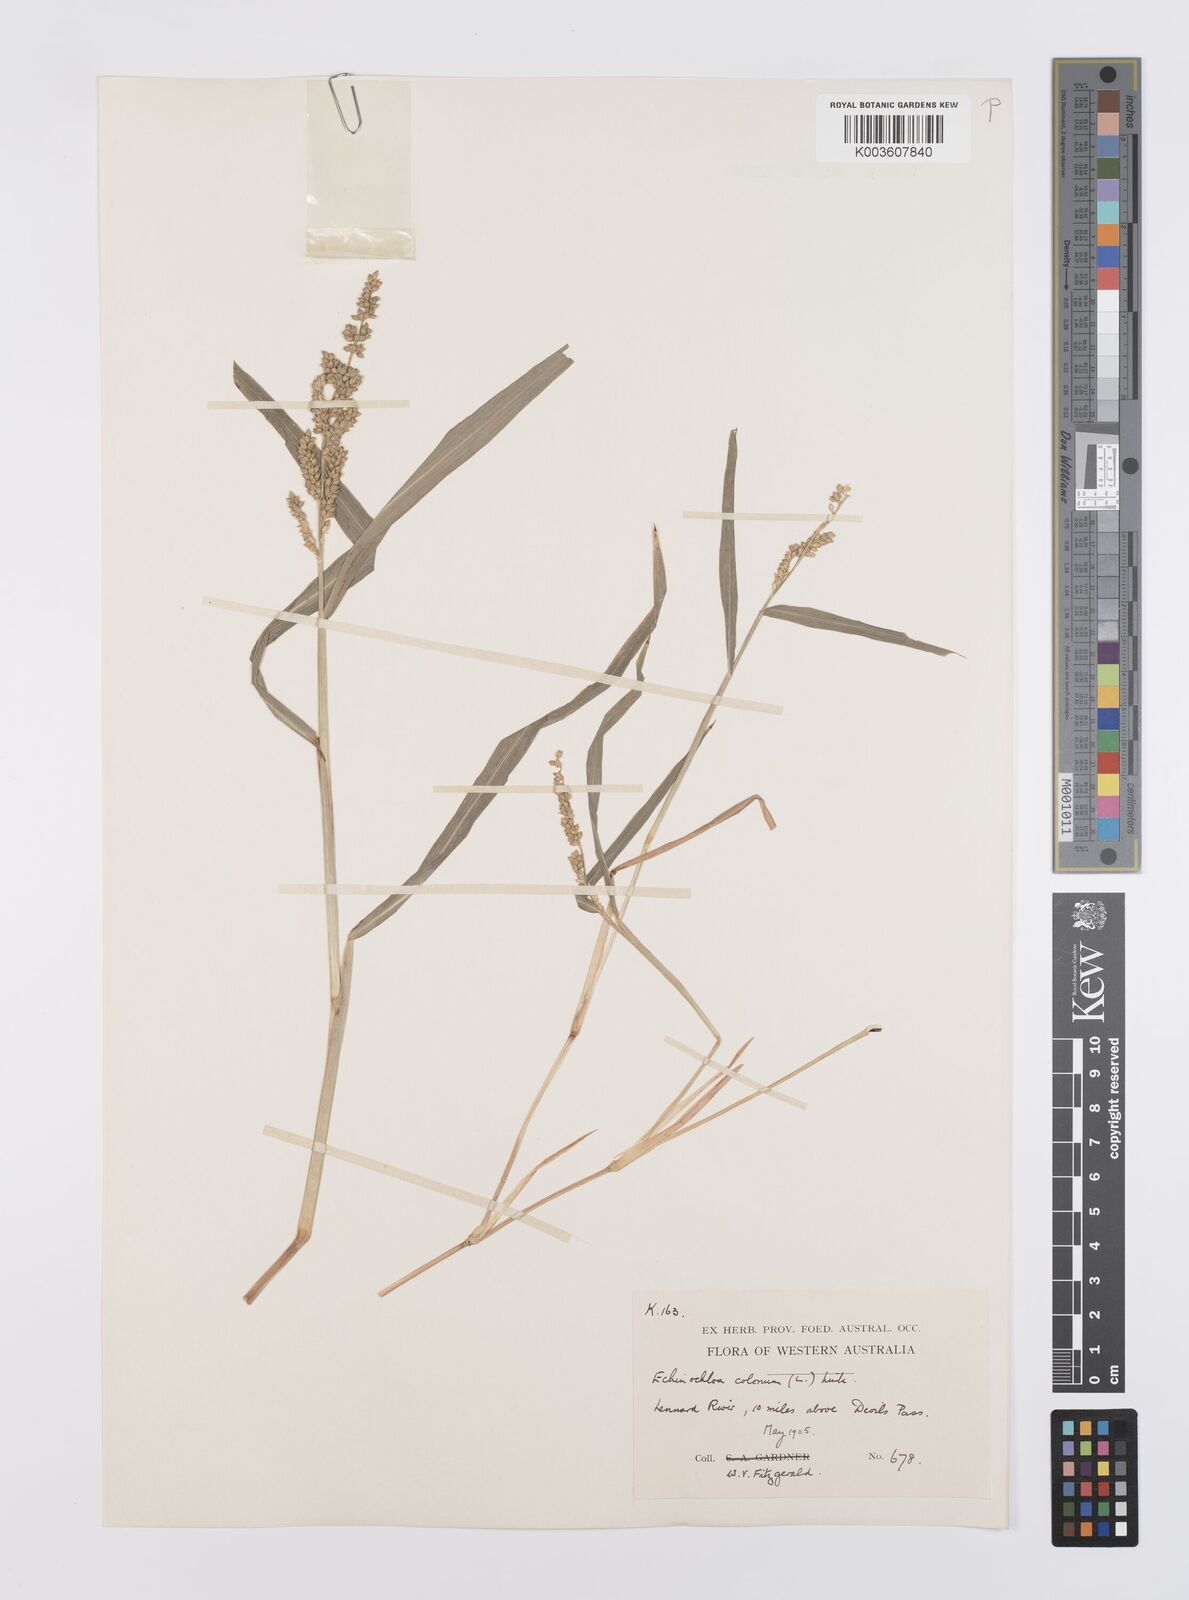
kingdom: Plantae
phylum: Tracheophyta
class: Liliopsida
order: Poales
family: Poaceae
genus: Echinochloa
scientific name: Echinochloa colonum
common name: Jungle rice
